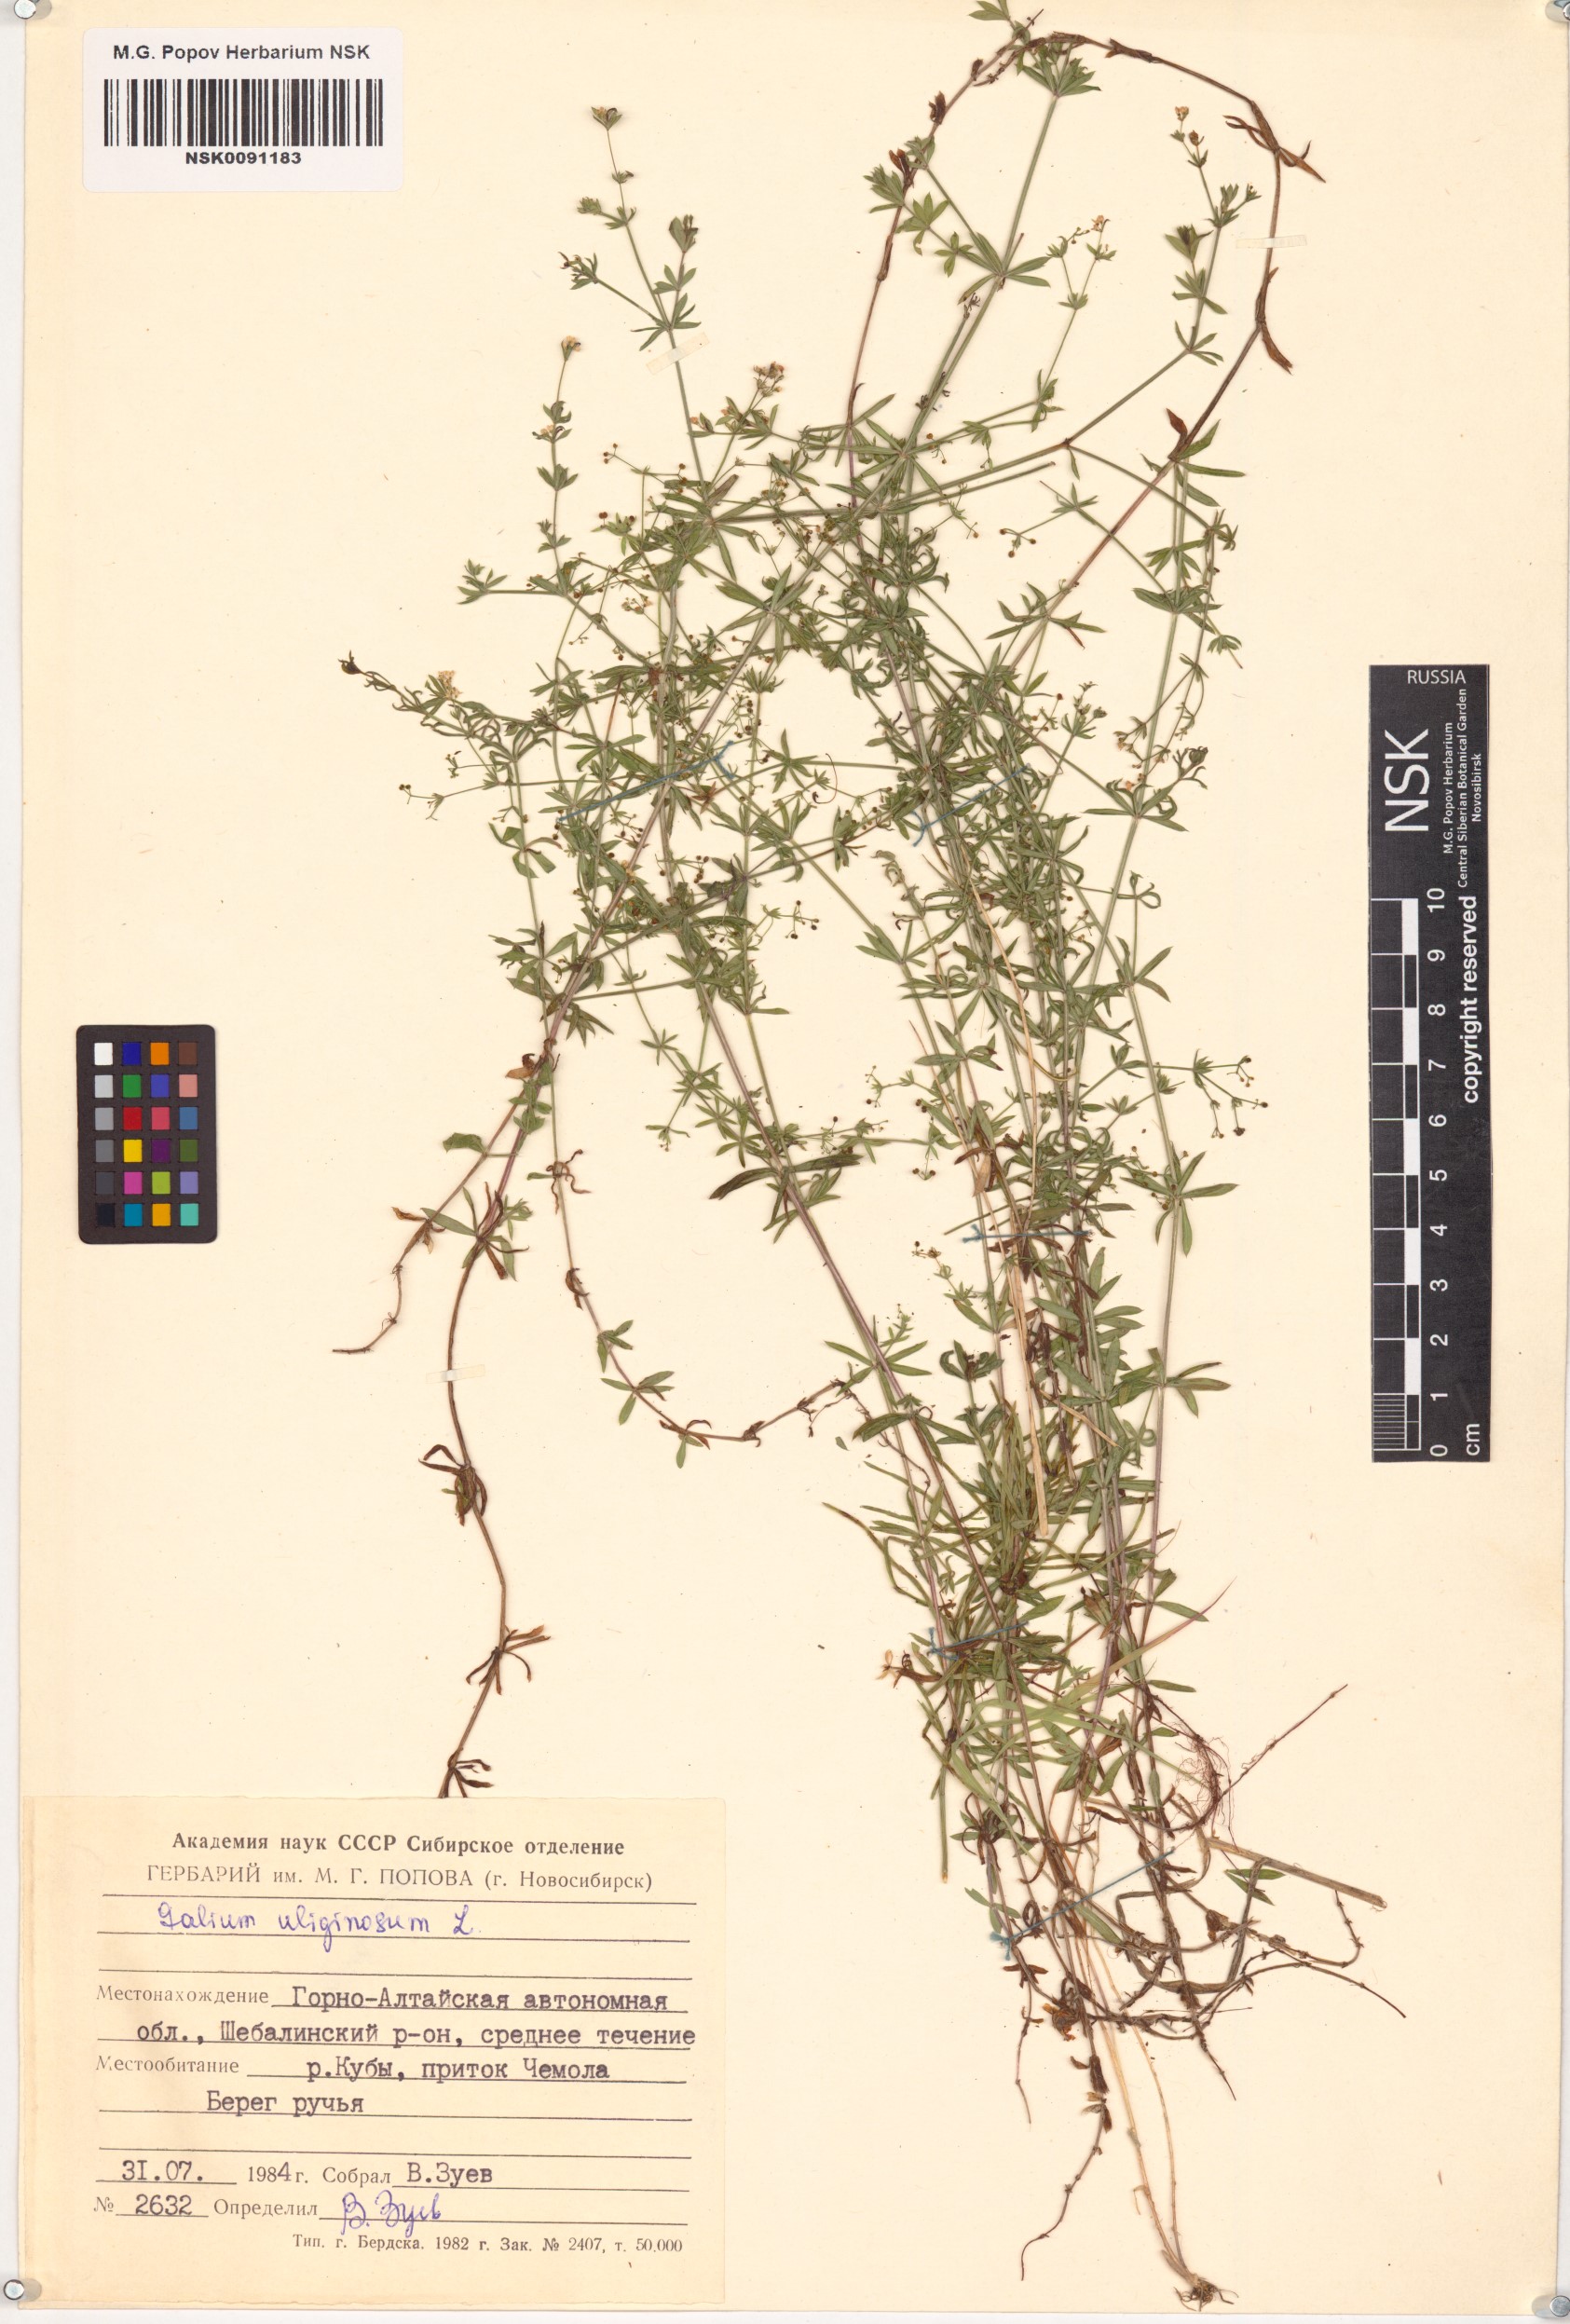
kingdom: Plantae
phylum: Tracheophyta
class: Magnoliopsida
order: Gentianales
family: Rubiaceae
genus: Galium
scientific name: Galium uliginosum
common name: Fen bedstraw
